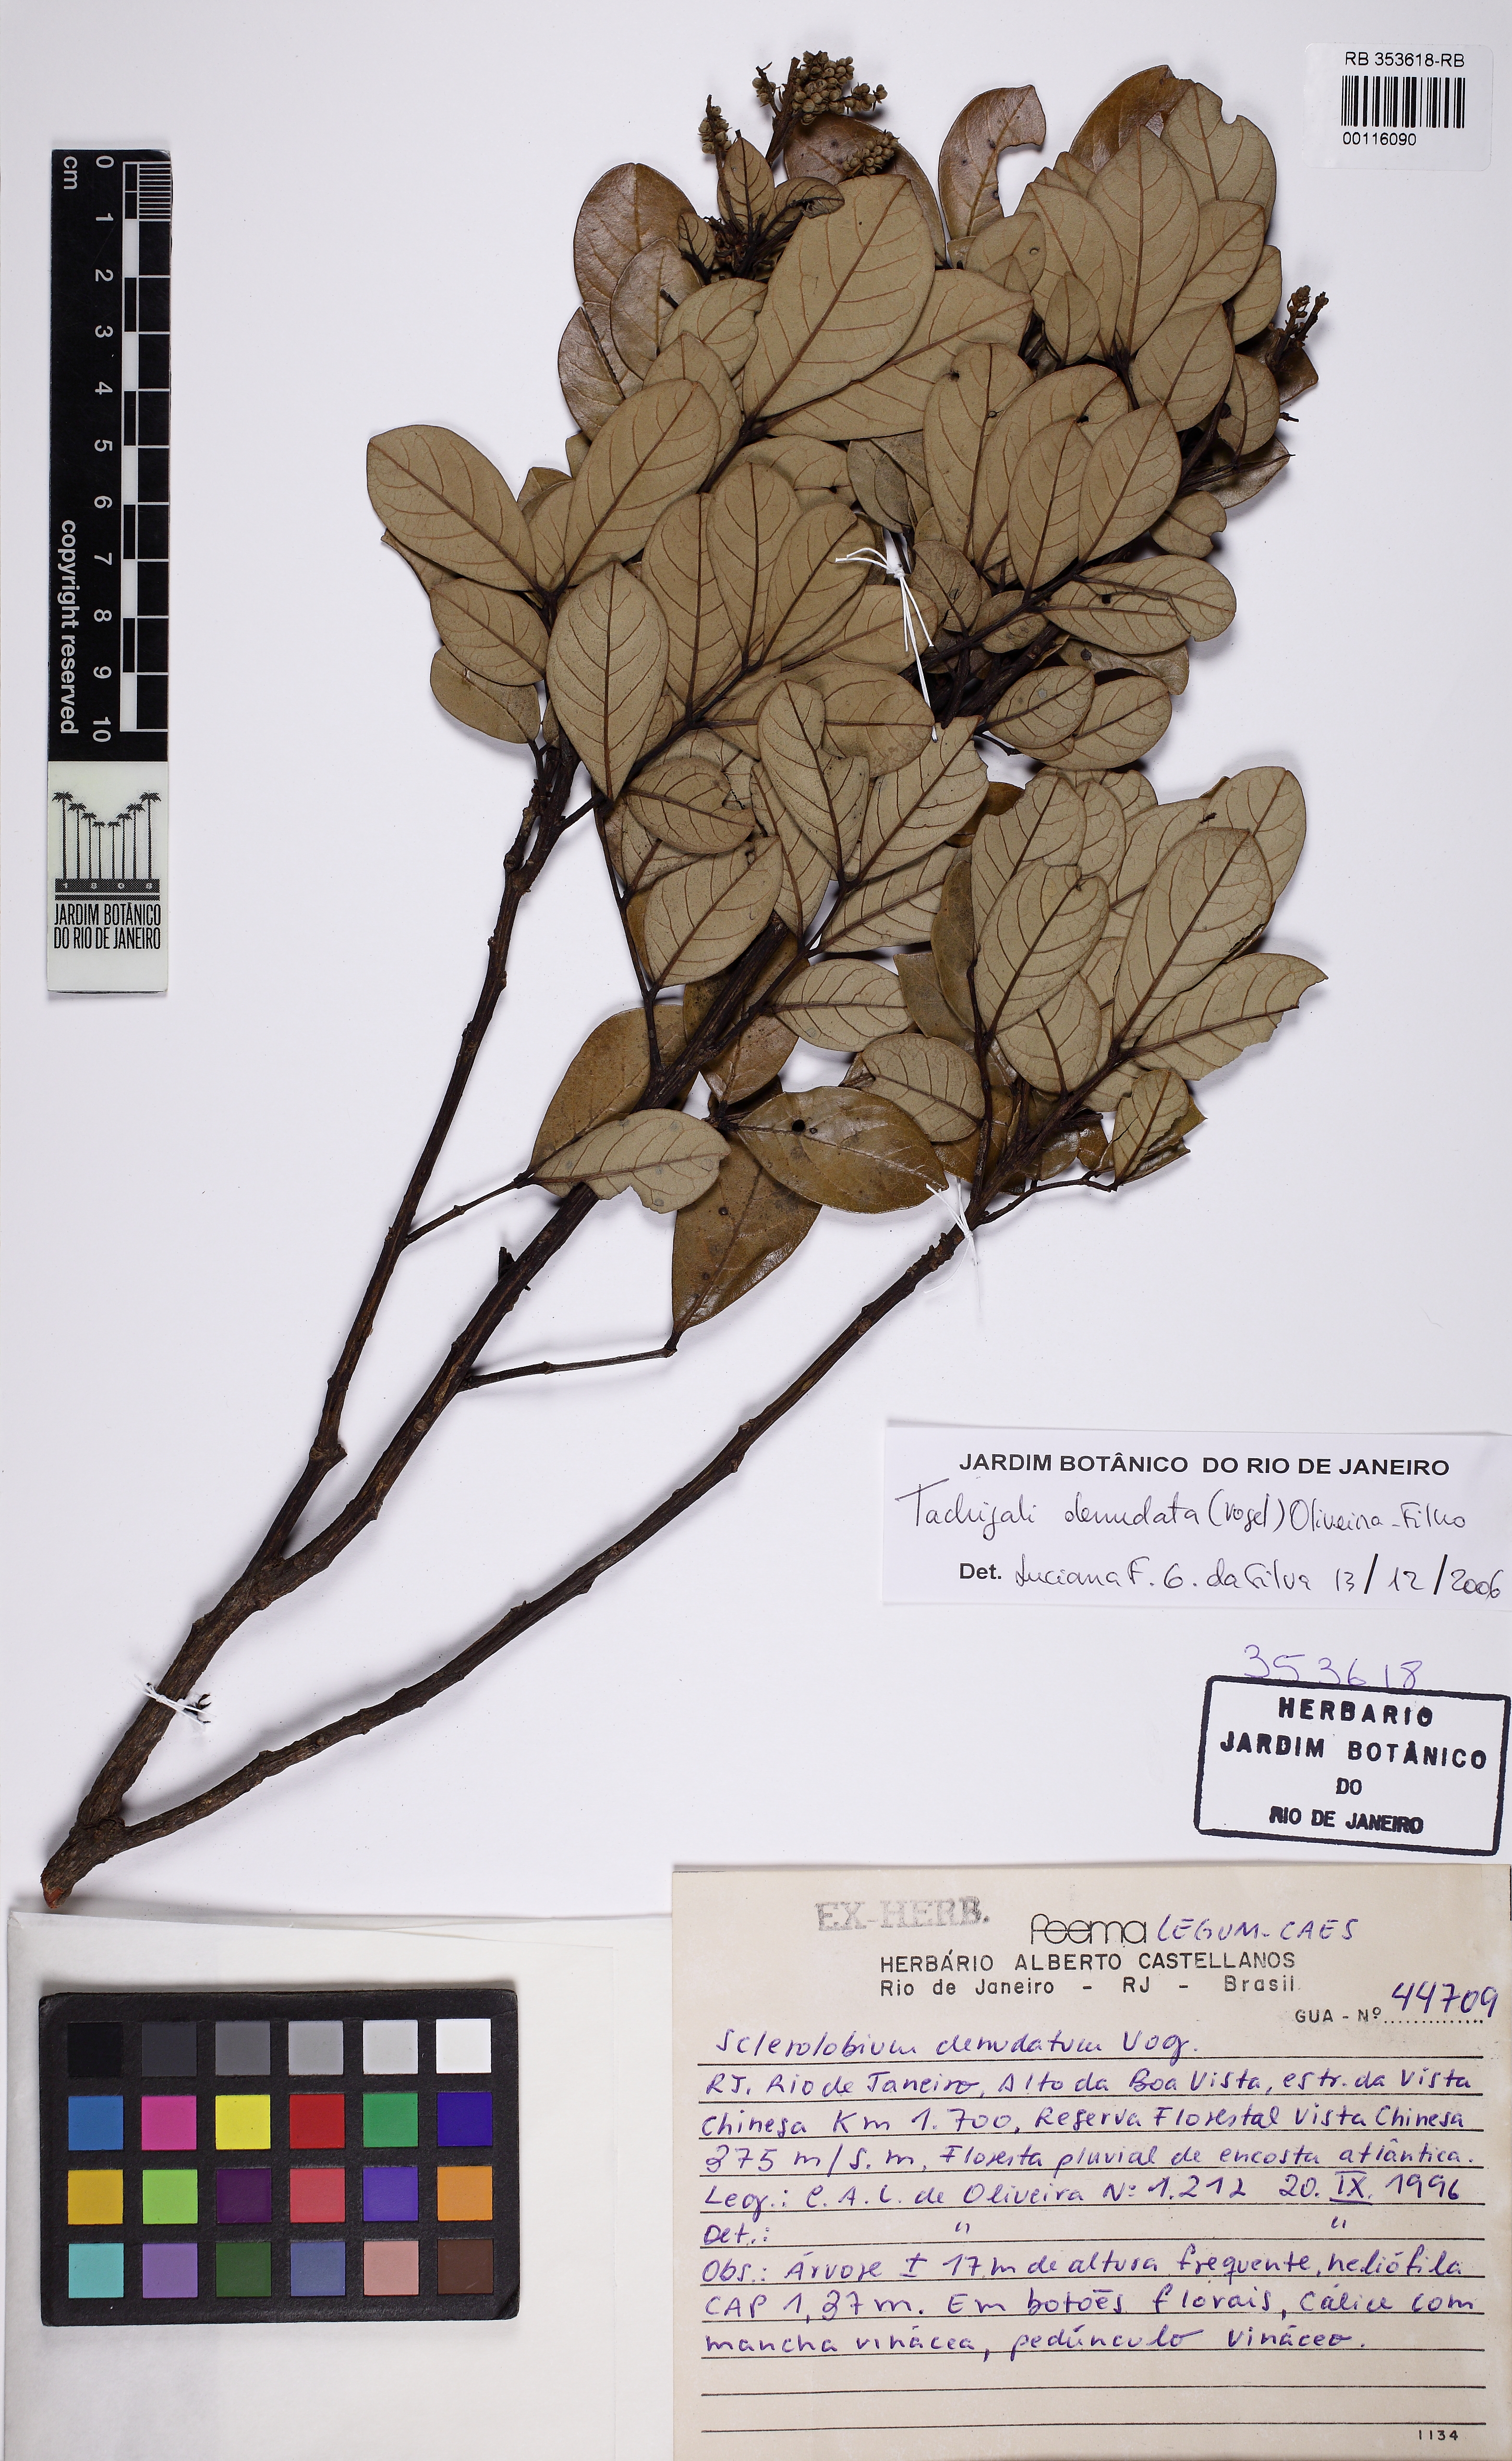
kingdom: Plantae
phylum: Tracheophyta
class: Magnoliopsida
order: Fabales
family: Fabaceae
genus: Tachigali
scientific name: Tachigali denudata
